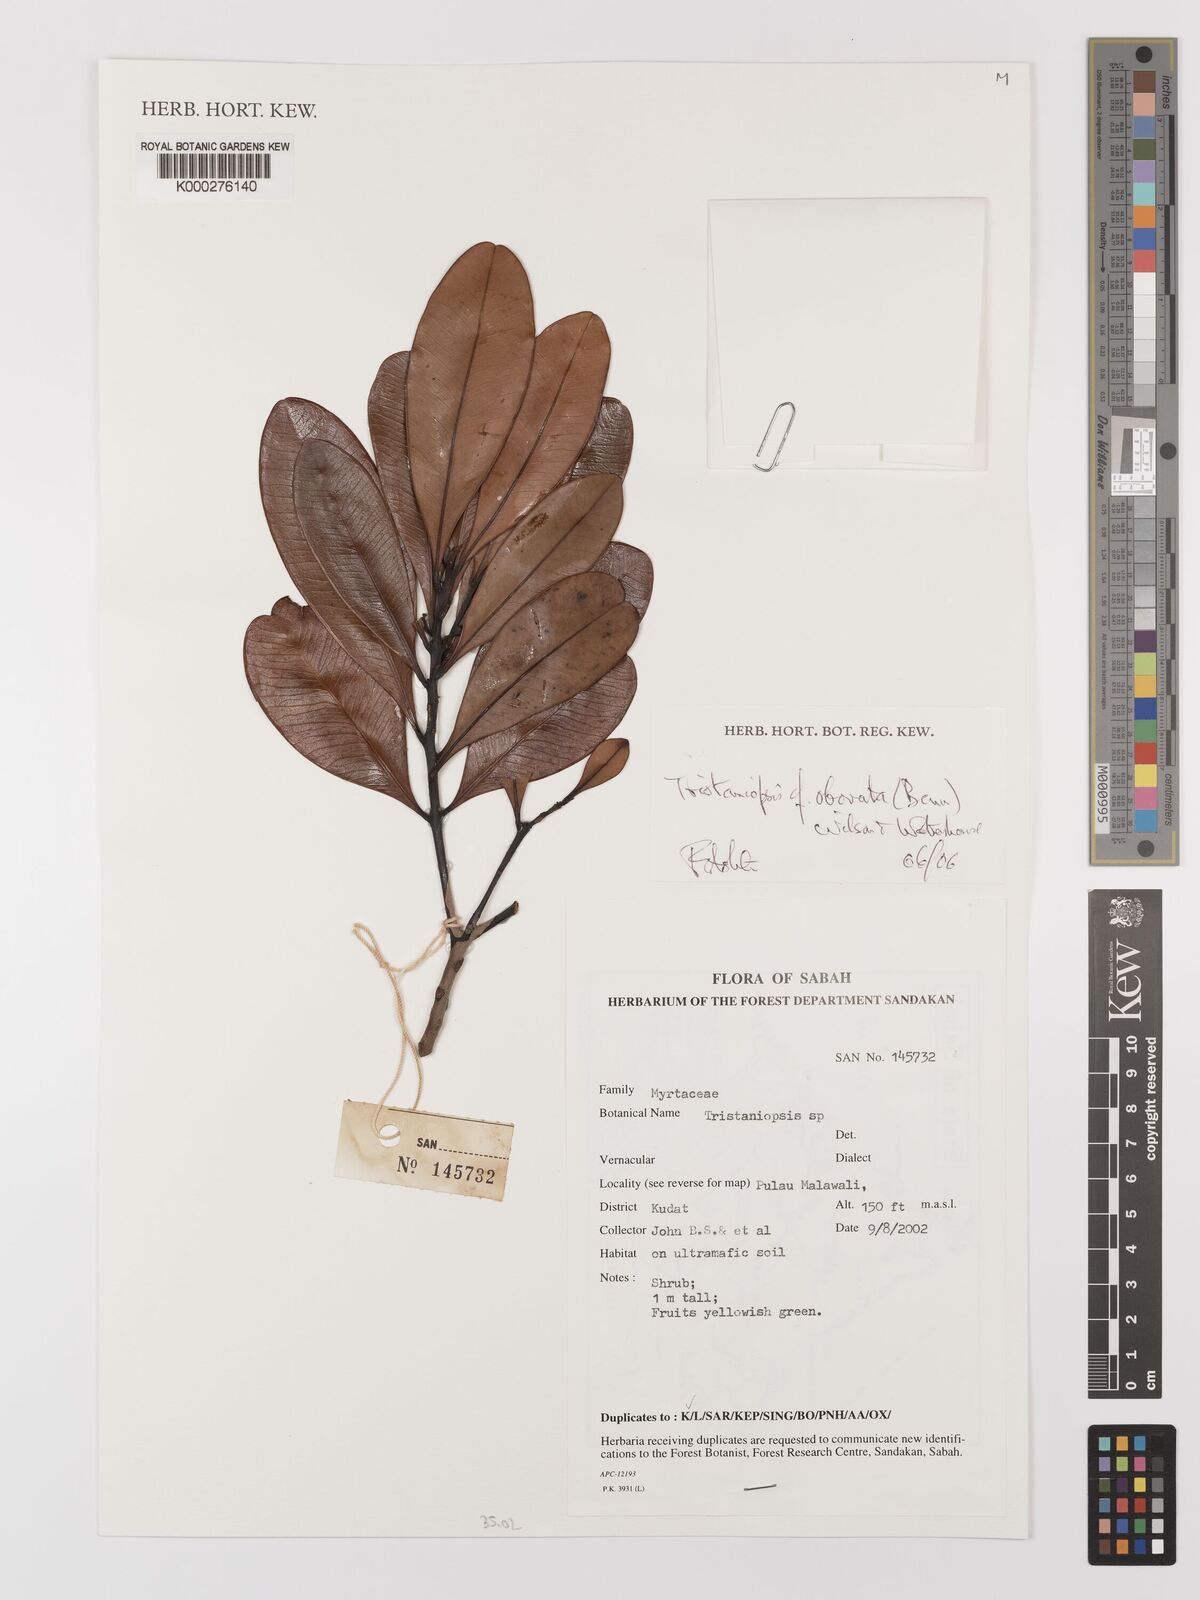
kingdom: Plantae
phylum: Tracheophyta
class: Magnoliopsida
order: Myrtales
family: Myrtaceae
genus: Tristaniopsis
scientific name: Tristaniopsis obovata
